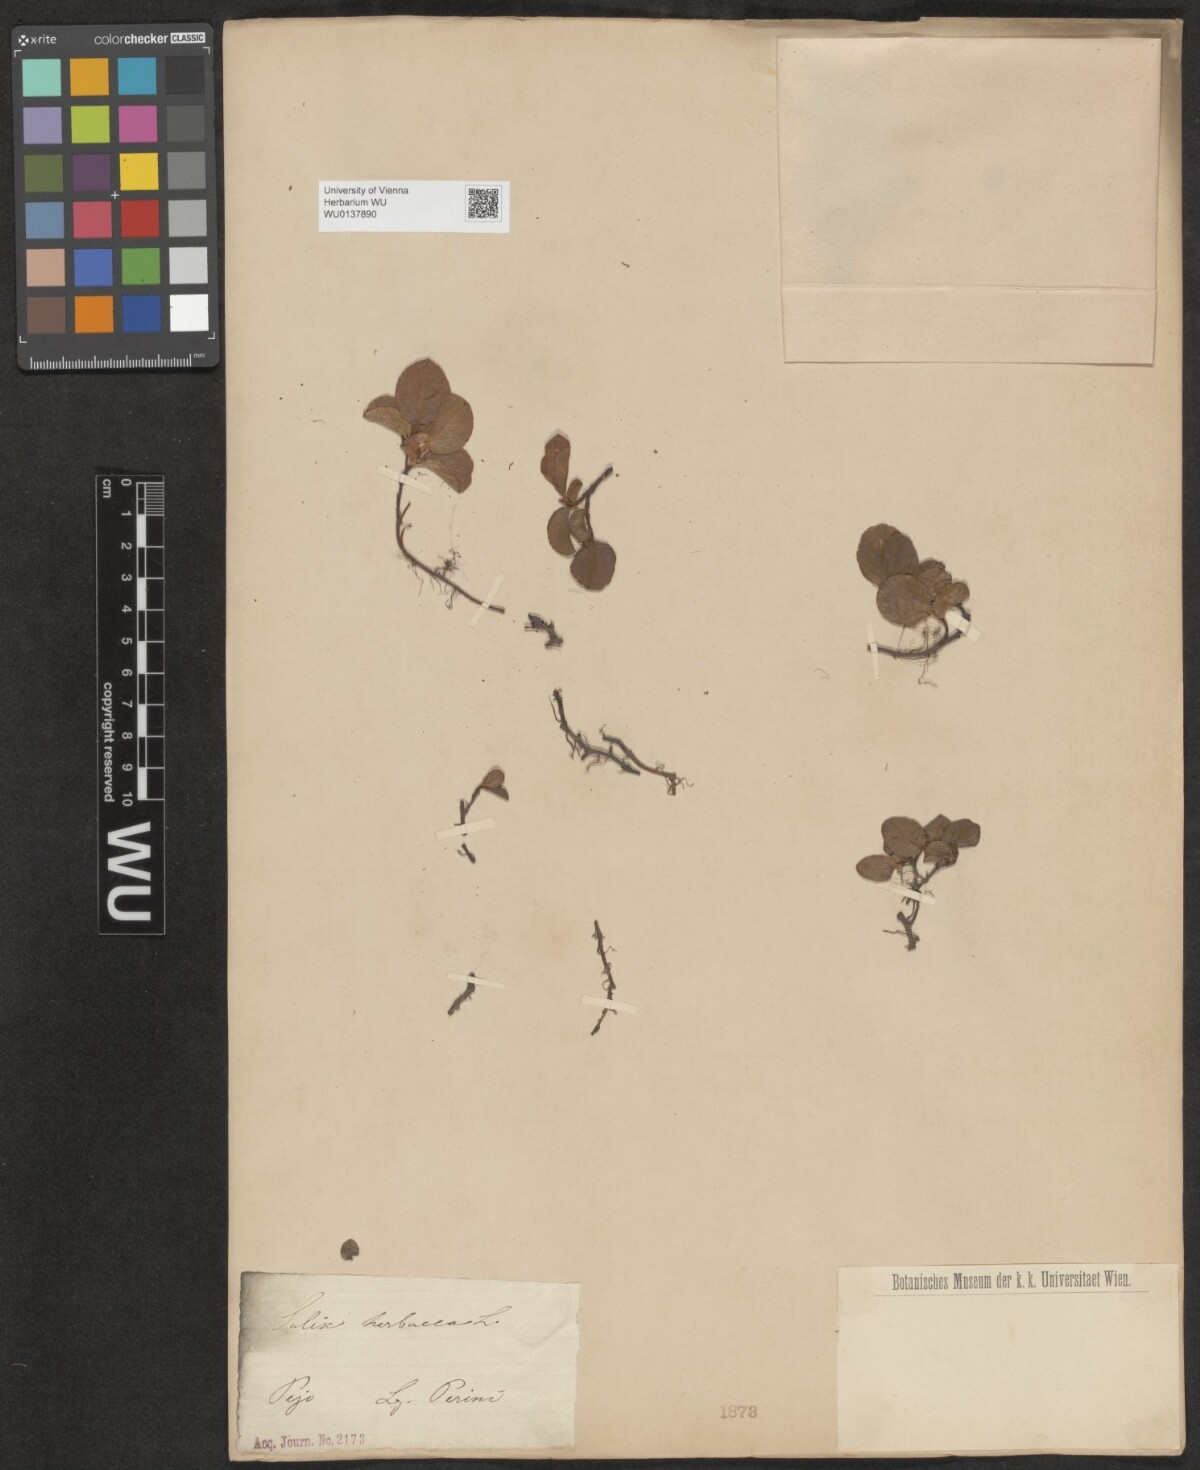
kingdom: Plantae
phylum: Tracheophyta
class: Magnoliopsida
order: Malpighiales
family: Salicaceae
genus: Salix
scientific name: Salix herbacea
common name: Dwarf willow
